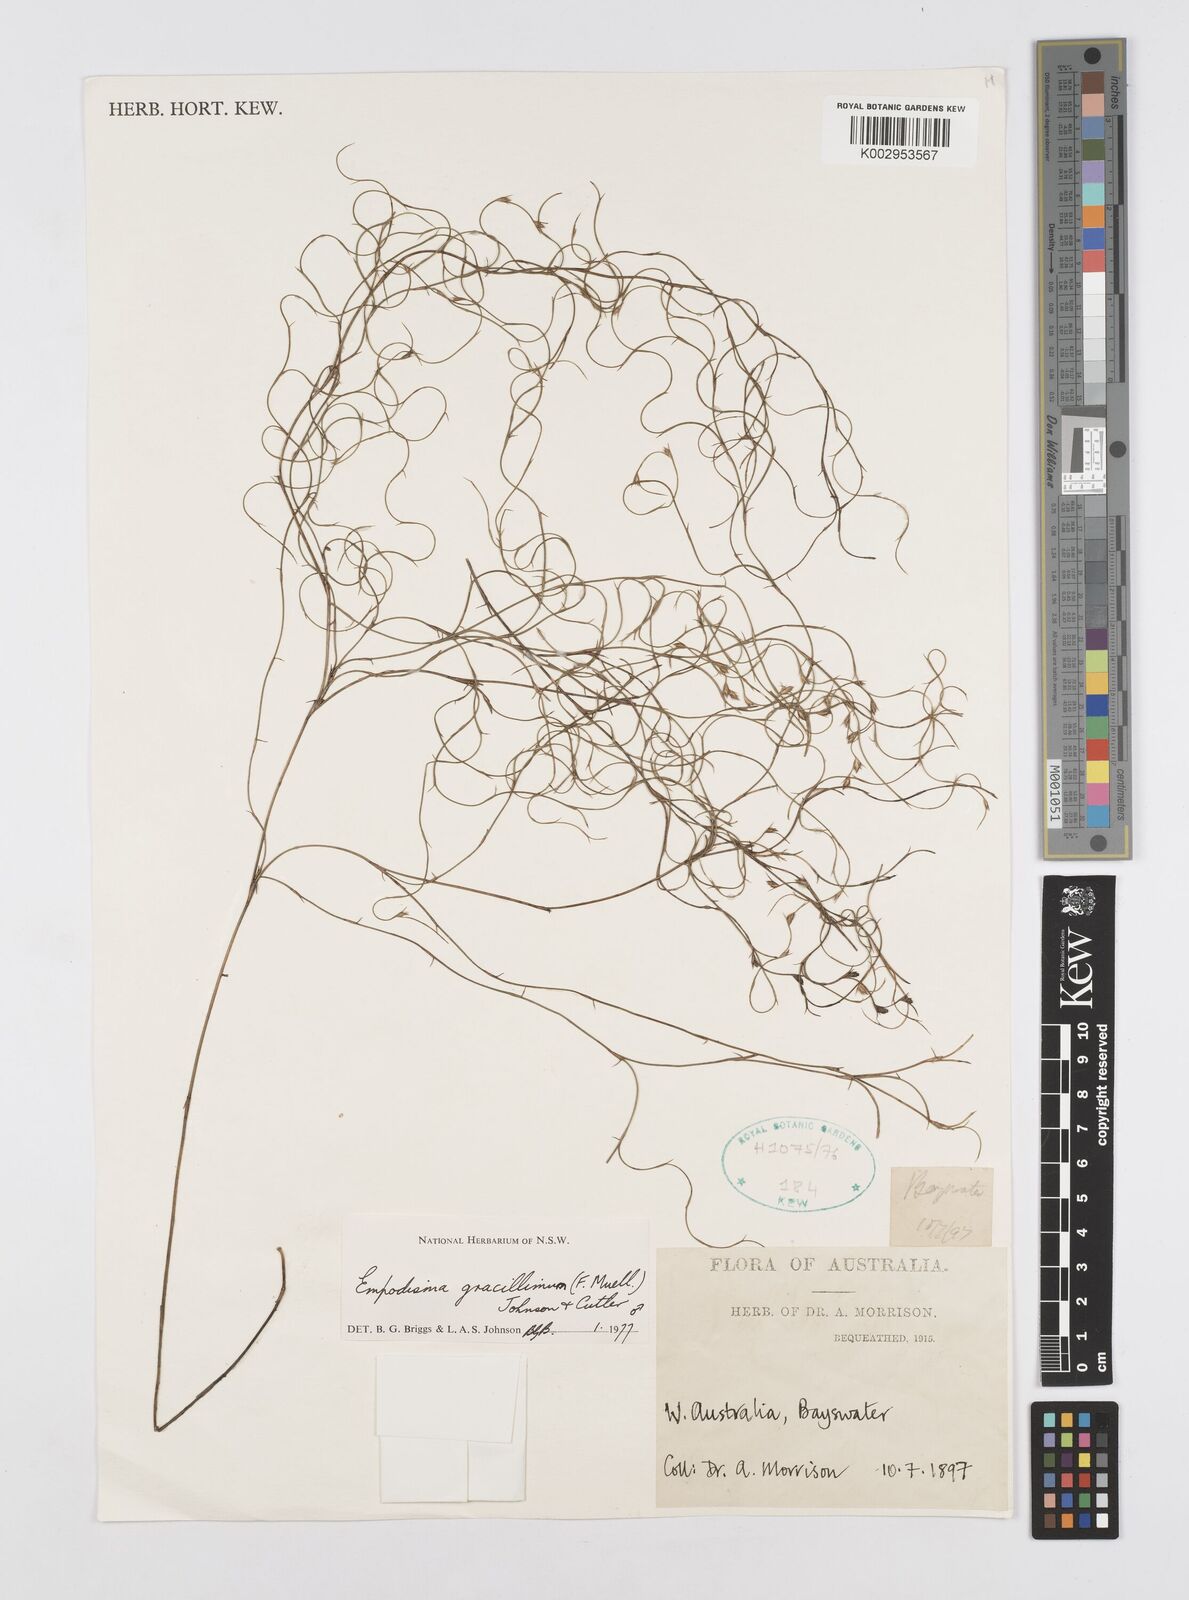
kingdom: Plantae
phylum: Tracheophyta
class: Liliopsida
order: Poales
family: Restionaceae
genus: Empodisma
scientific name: Empodisma gracillimum
